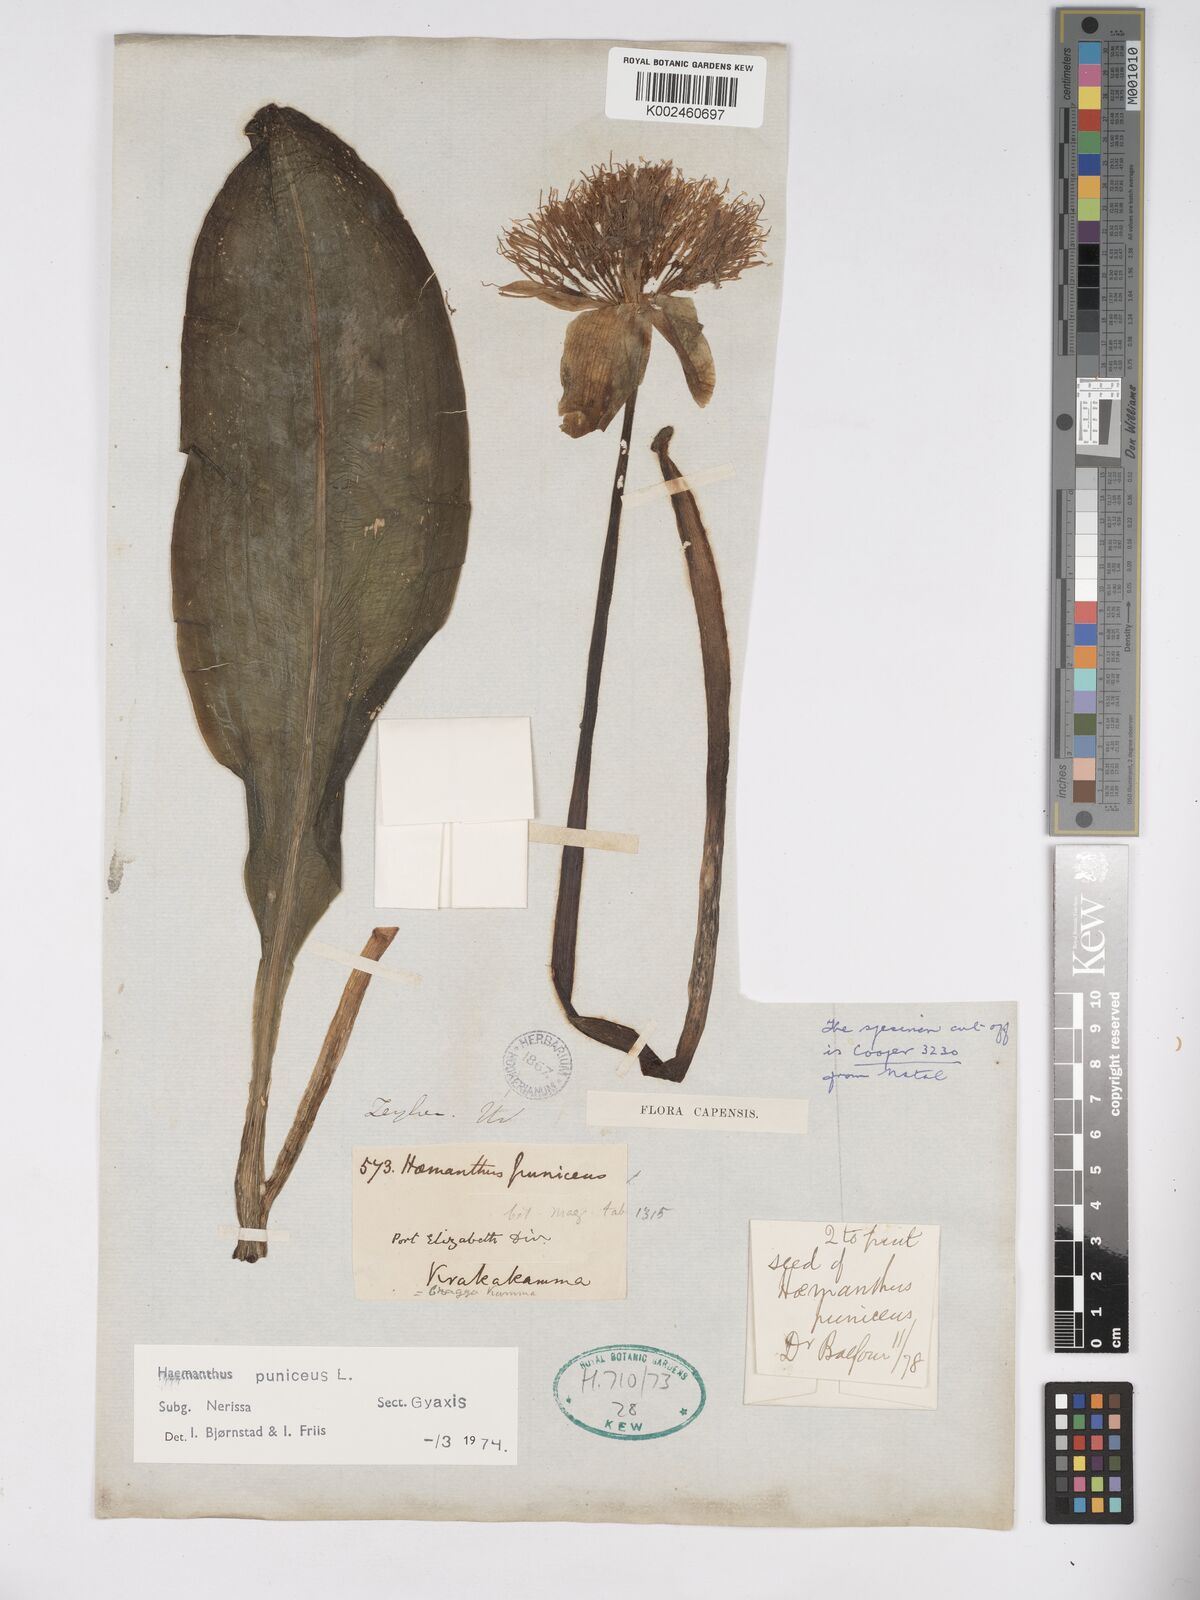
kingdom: Plantae
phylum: Tracheophyta
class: Liliopsida
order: Asparagales
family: Amaryllidaceae
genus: Scadoxus
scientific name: Scadoxus puniceus
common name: Royal-paintbrush
